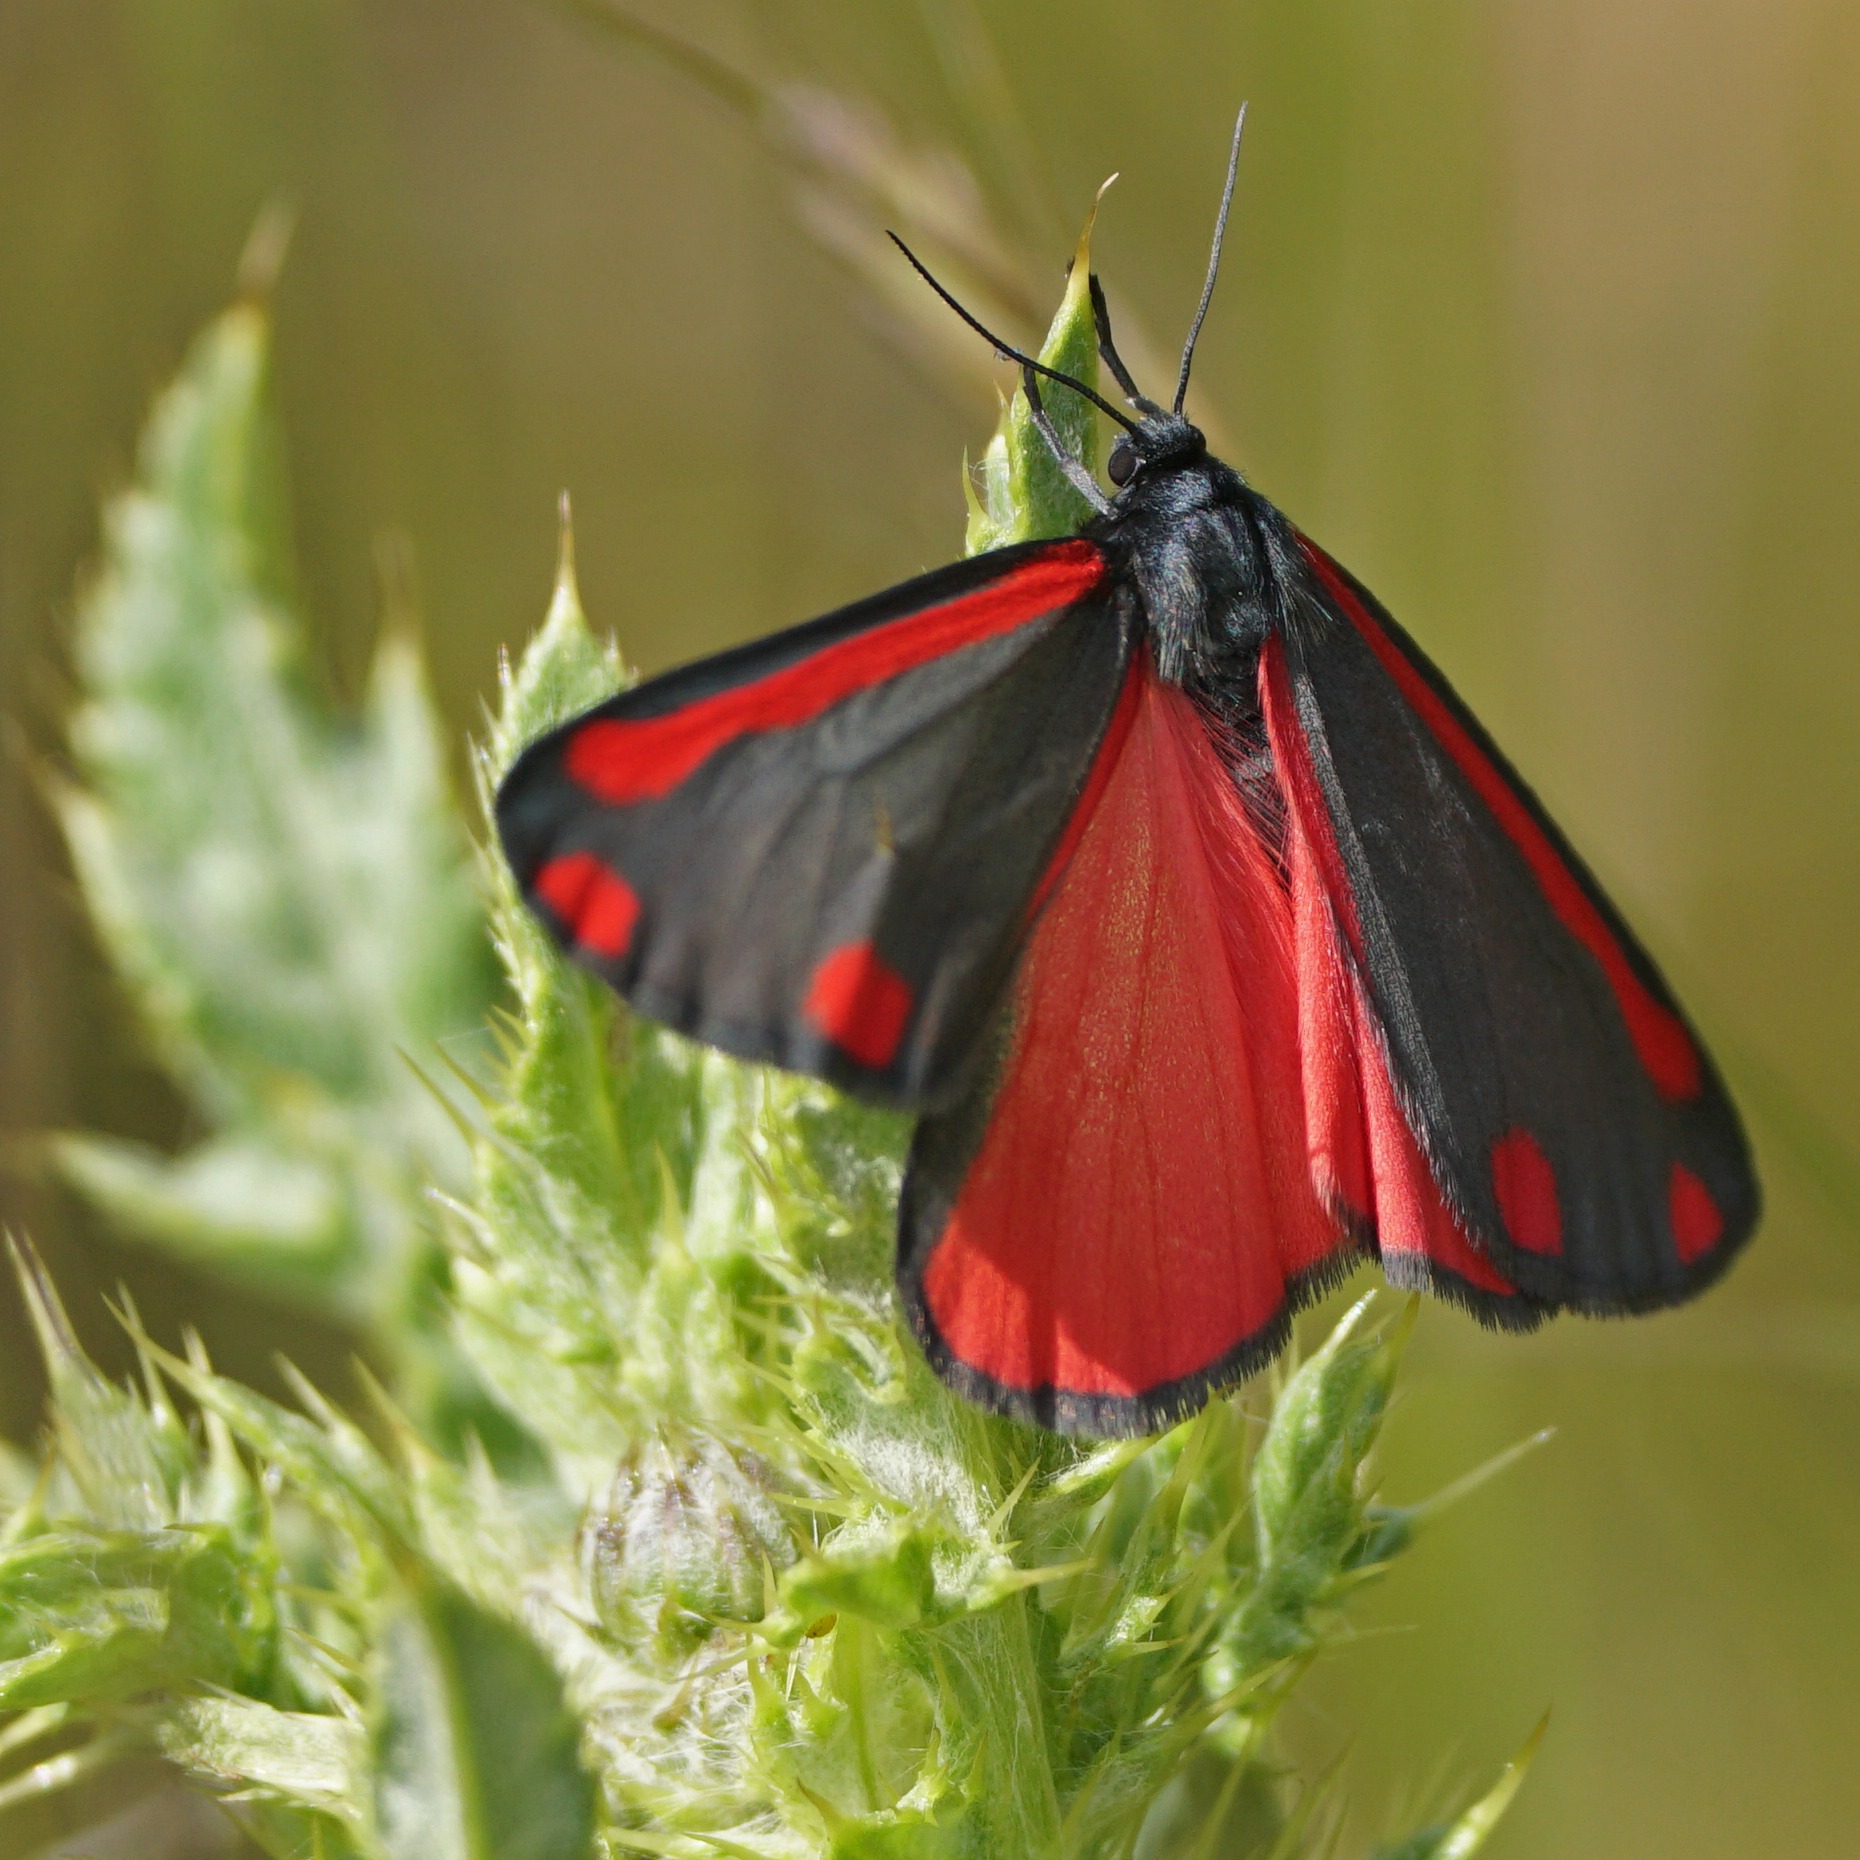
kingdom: Animalia
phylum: Arthropoda
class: Insecta
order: Lepidoptera
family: Erebidae
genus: Tyria
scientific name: Tyria jacobaeae
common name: Blodplet
